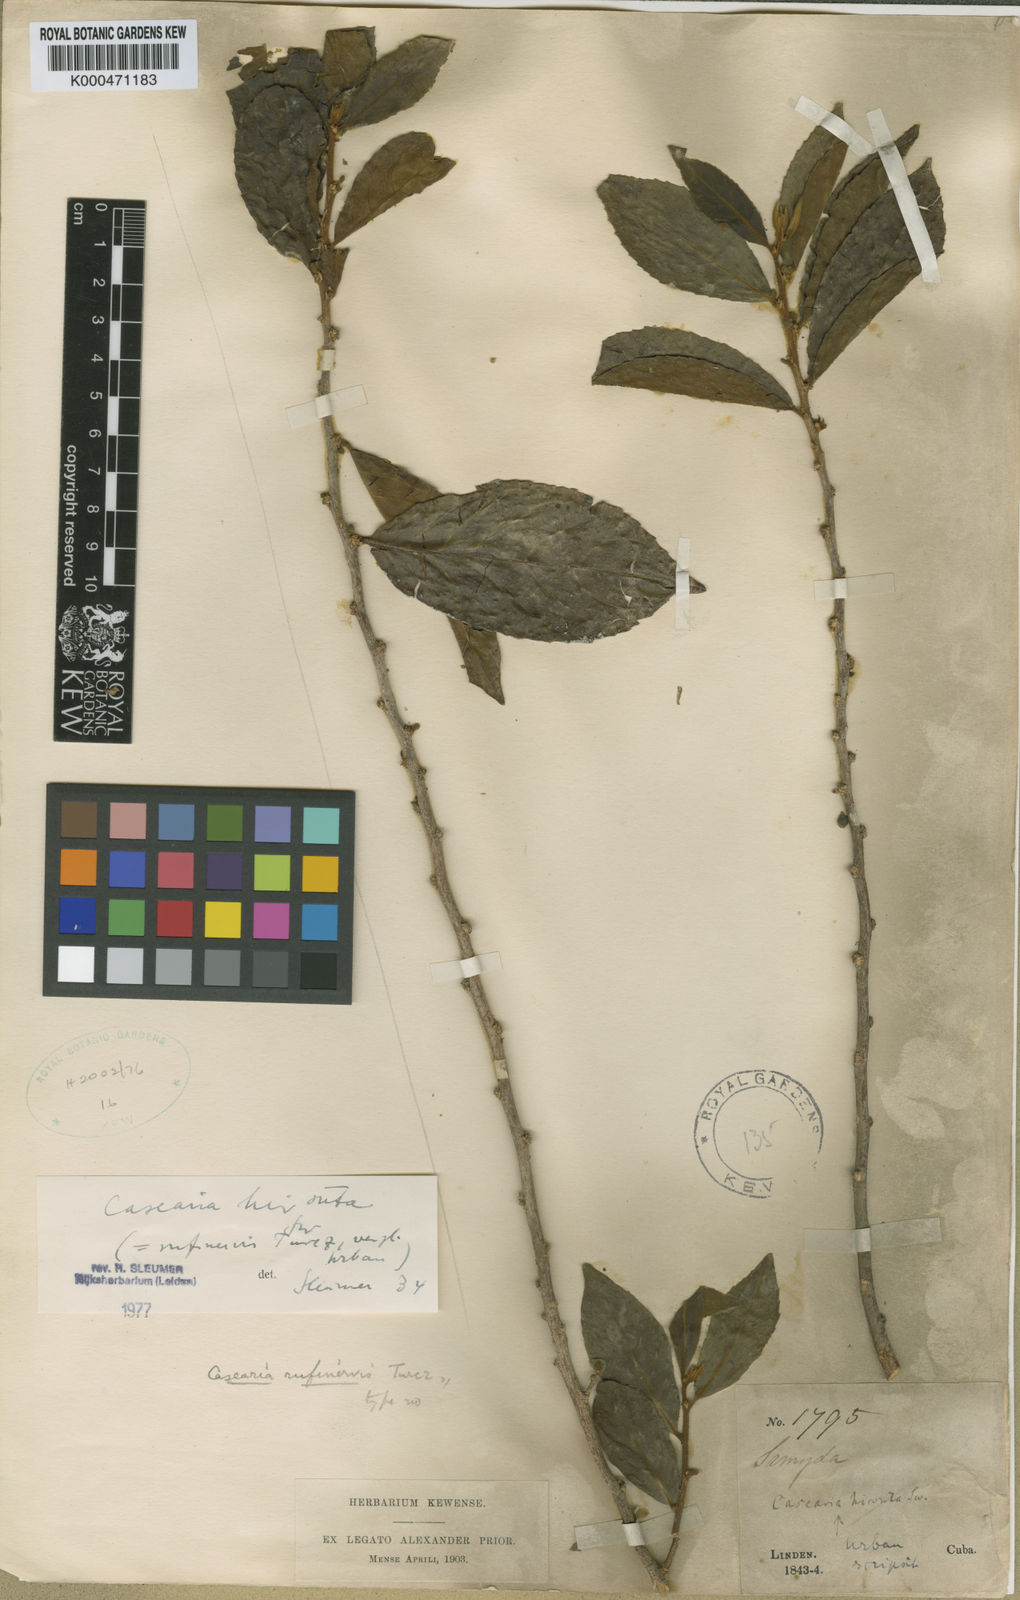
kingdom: Plantae
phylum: Tracheophyta
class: Magnoliopsida
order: Malpighiales
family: Salicaceae
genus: Casearia
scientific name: Casearia hirsuta
